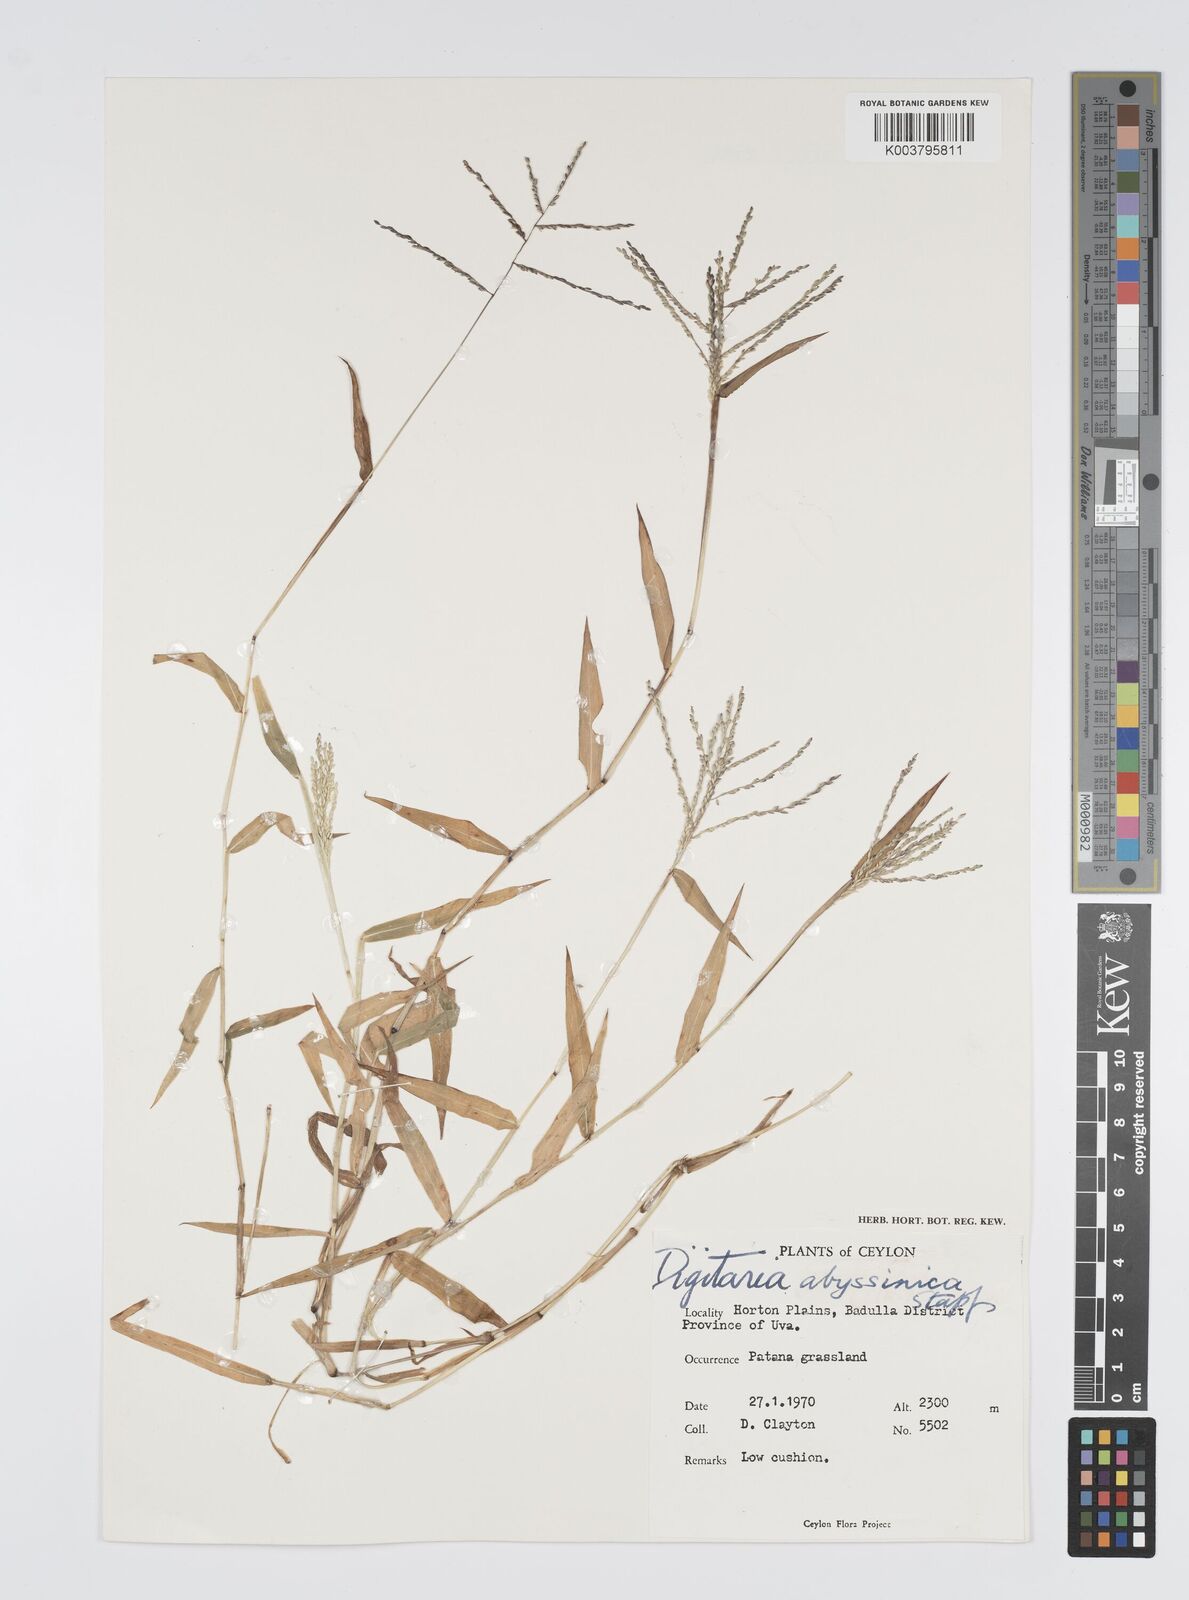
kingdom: Plantae
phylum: Tracheophyta
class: Liliopsida
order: Poales
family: Poaceae
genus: Digitaria
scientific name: Digitaria abyssinica
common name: African couchgrass
